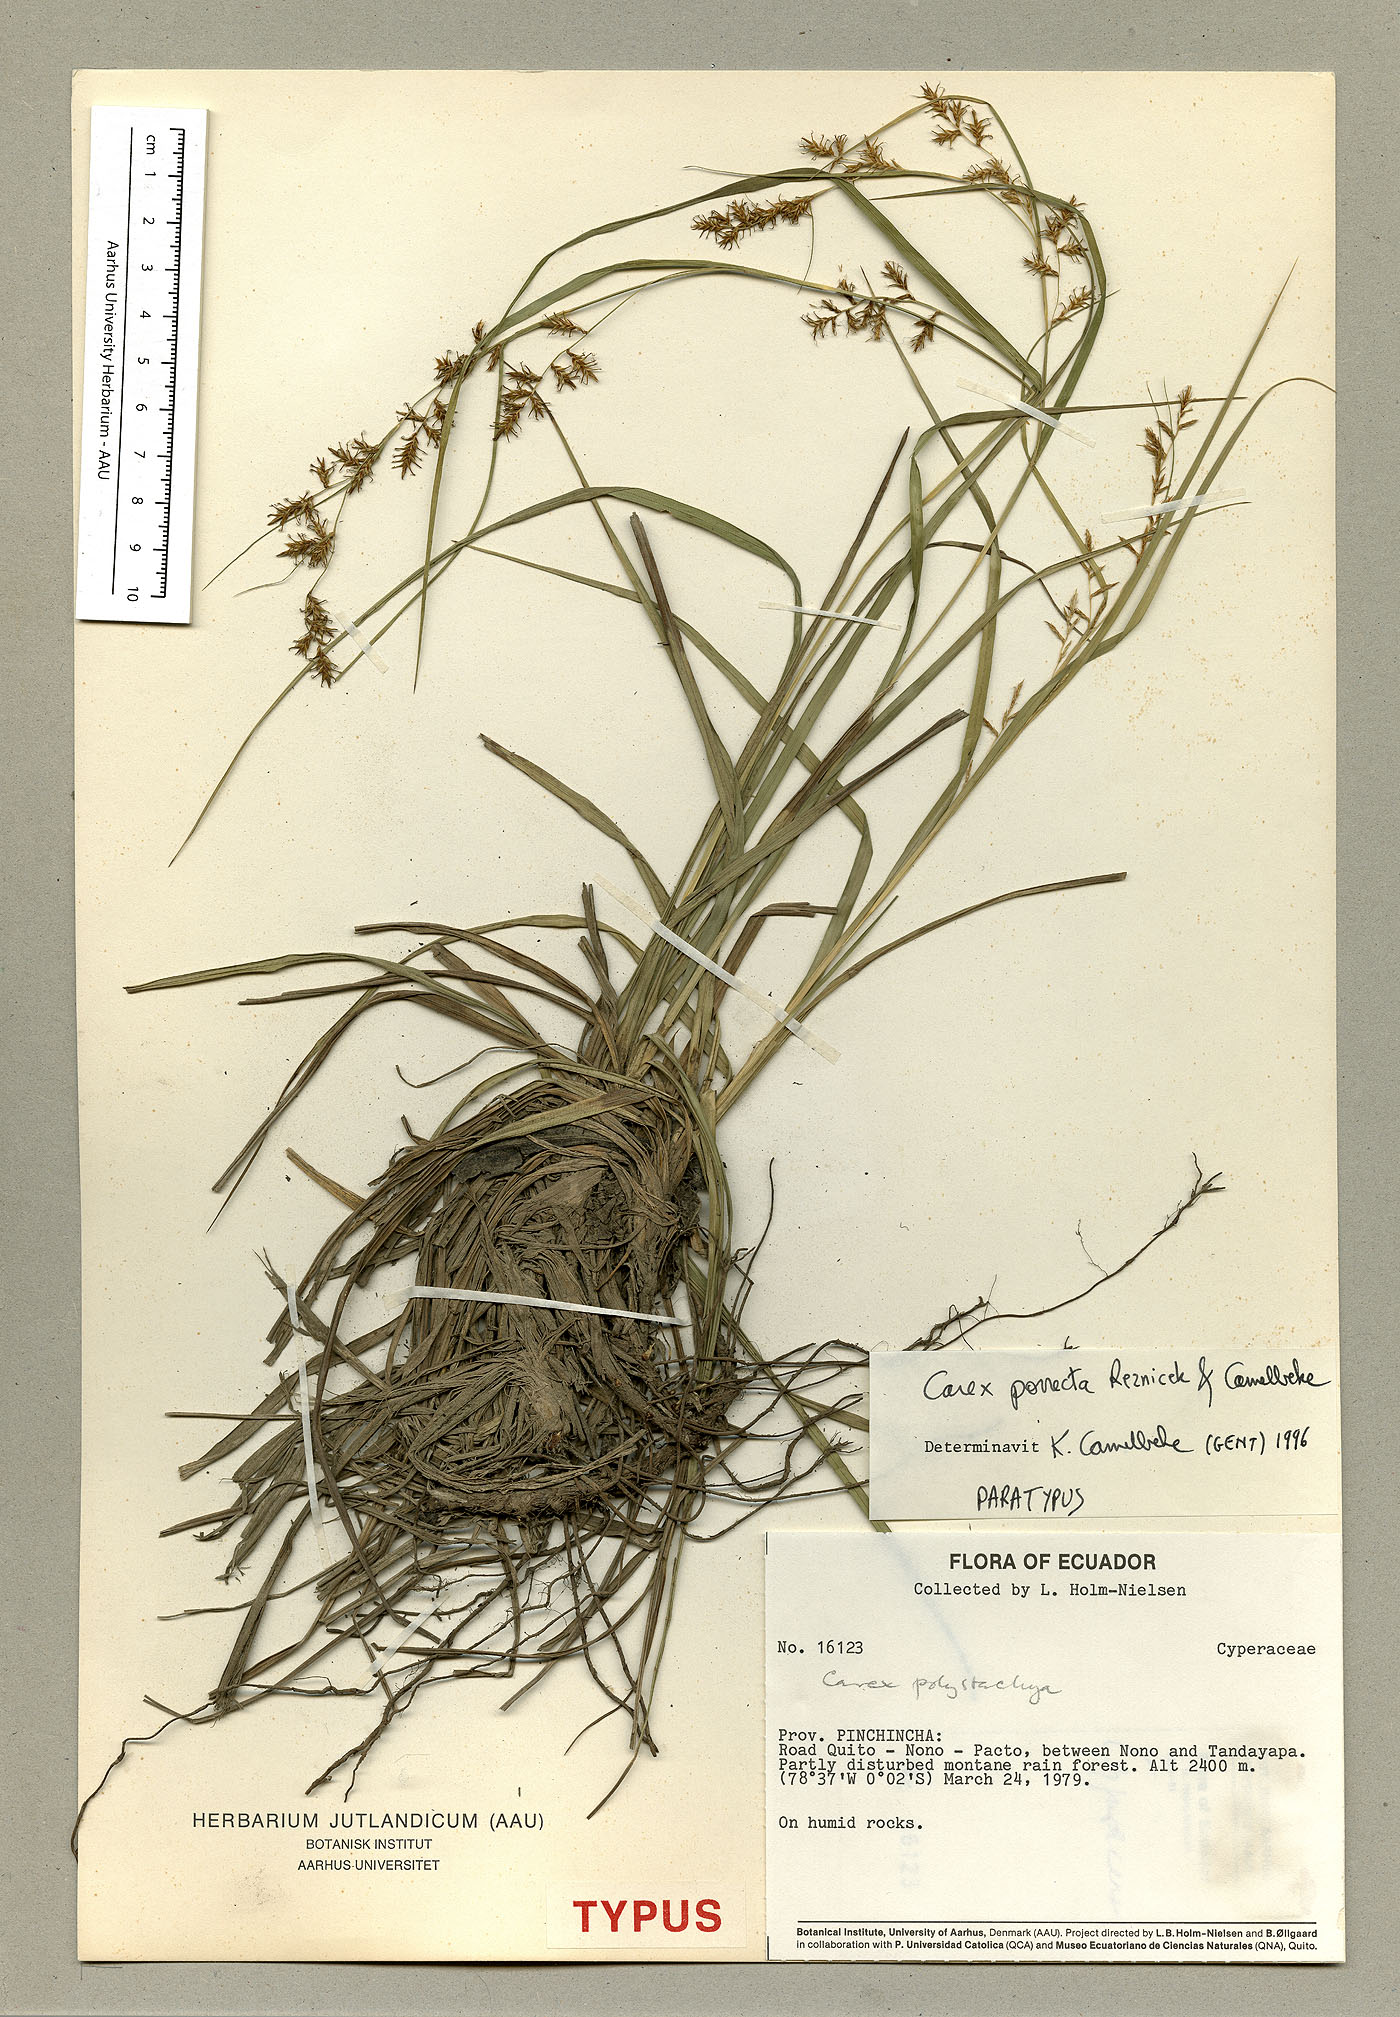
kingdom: Plantae
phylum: Tracheophyta
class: Liliopsida
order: Poales
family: Cyperaceae
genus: Carex
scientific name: Carex porrecta
